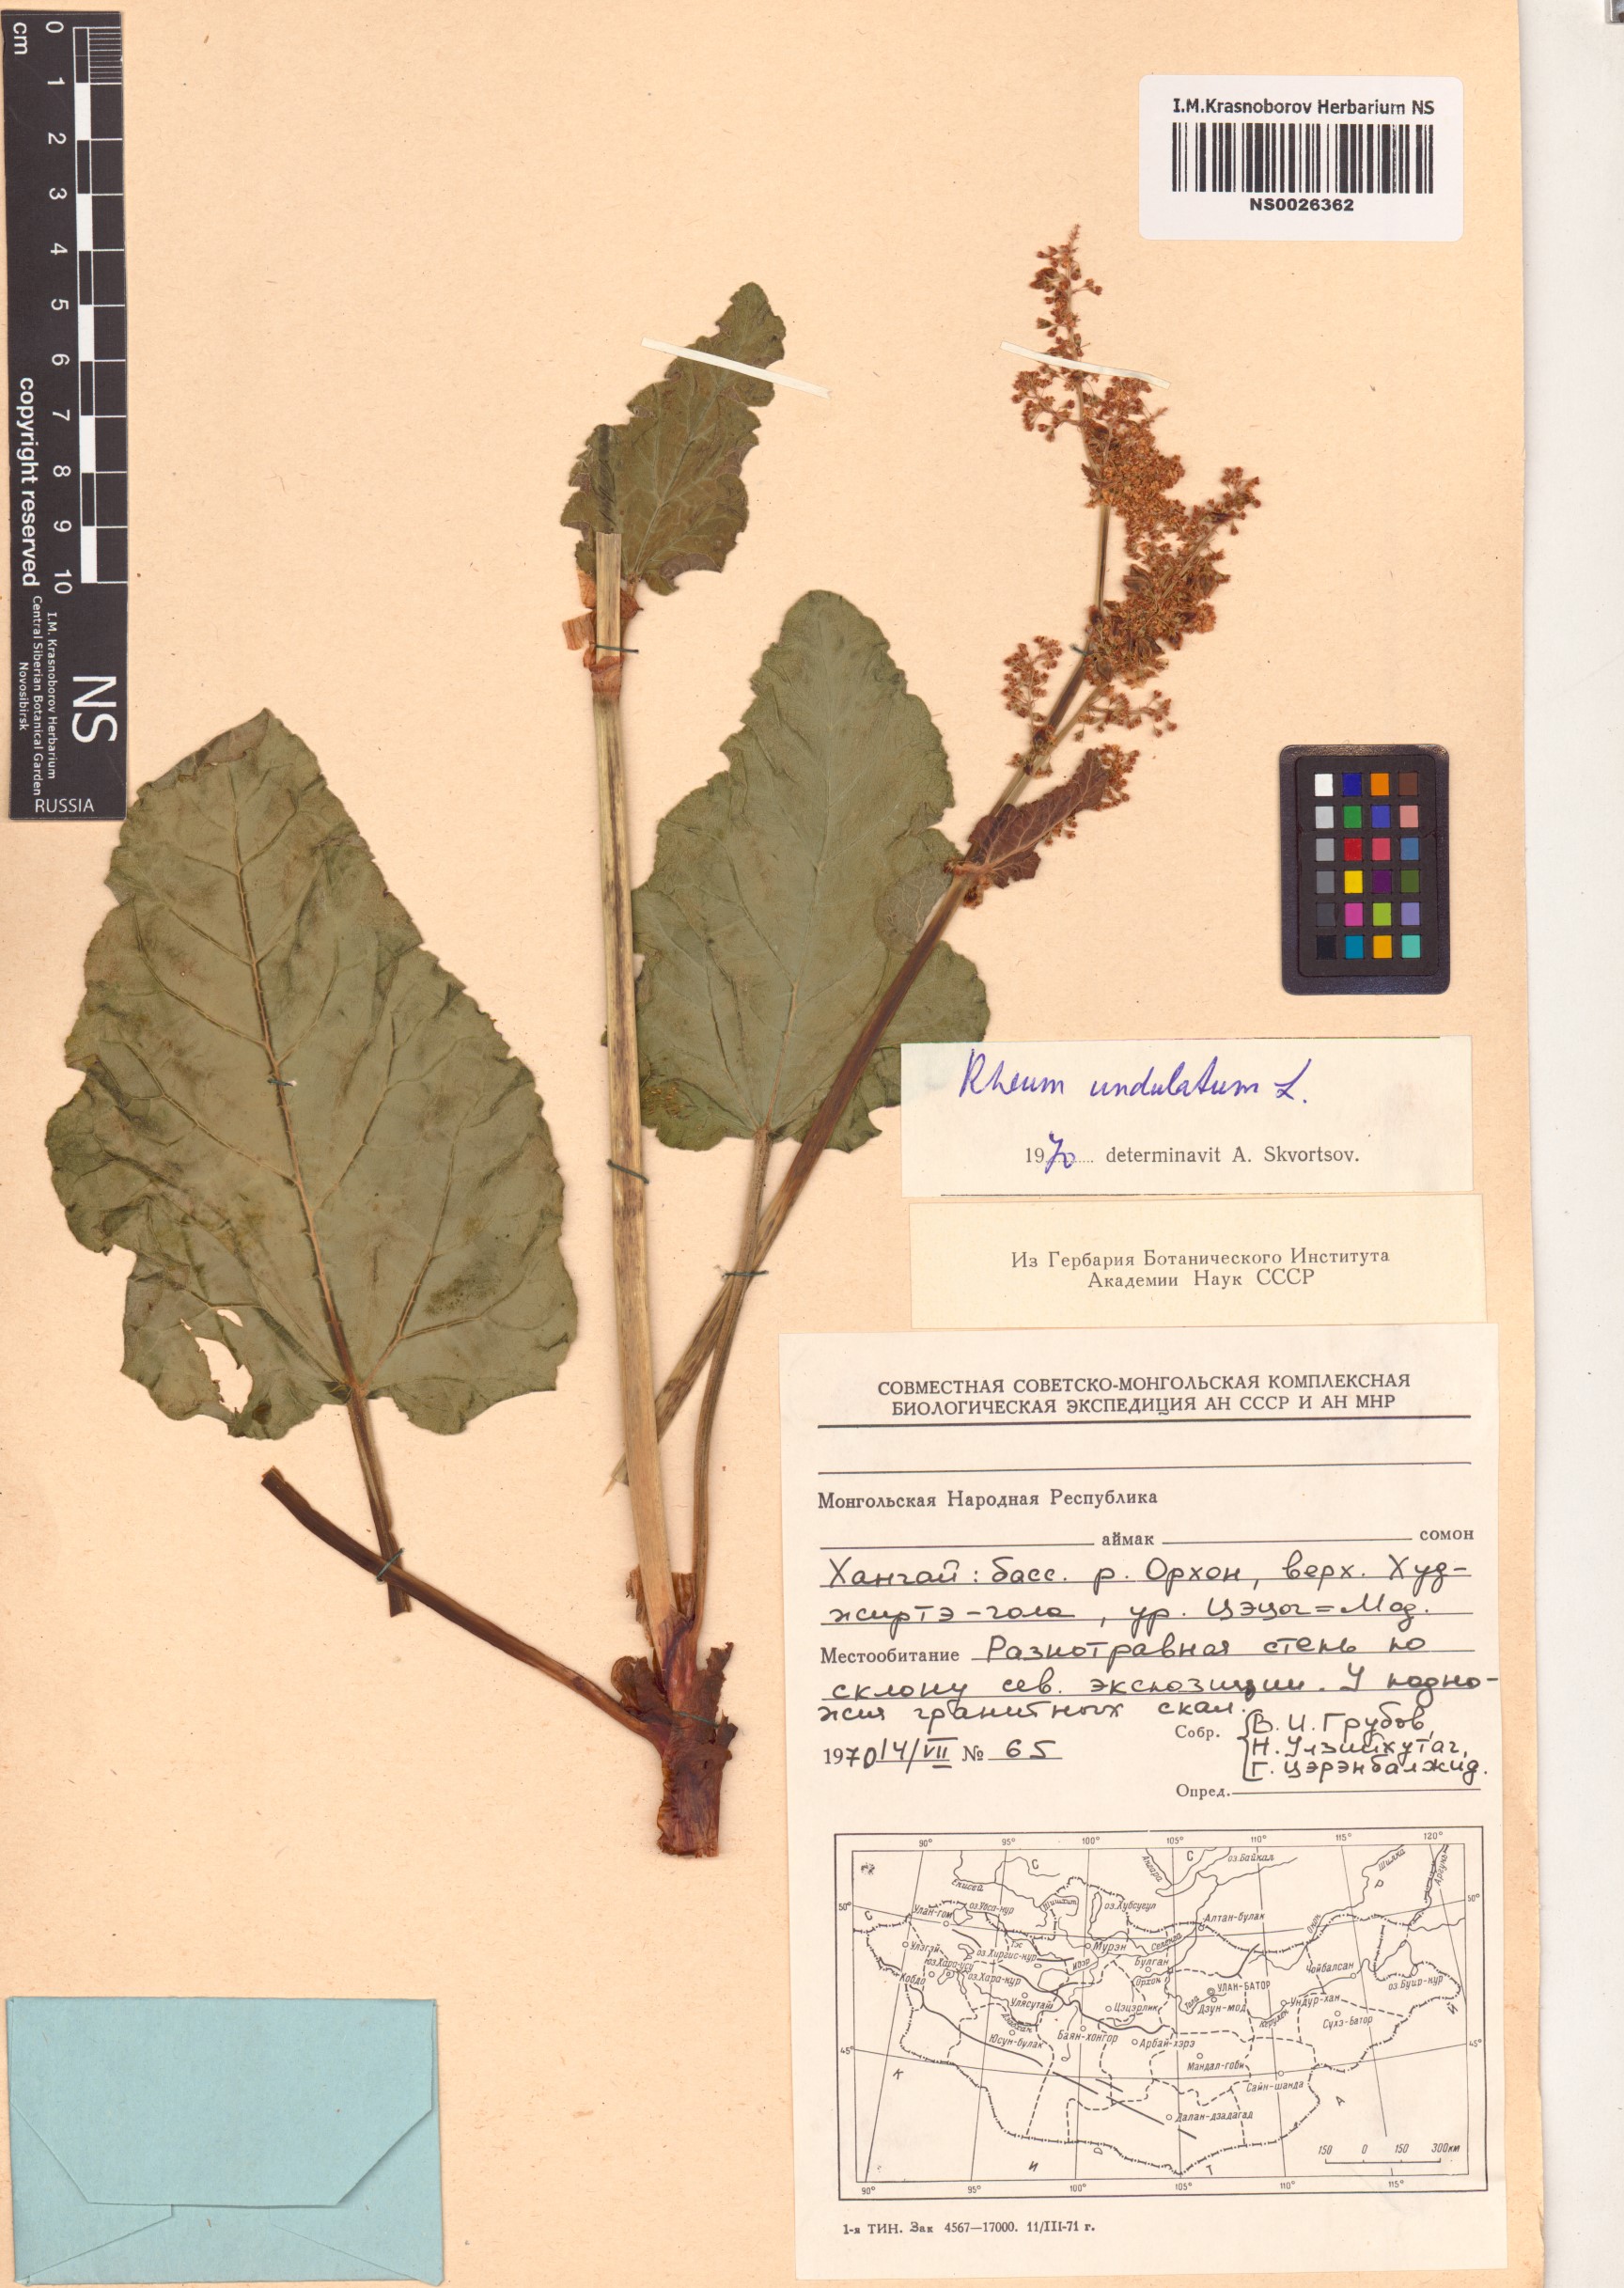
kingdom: Plantae
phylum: Tracheophyta
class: Magnoliopsida
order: Caryophyllales
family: Polygonaceae
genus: Rheum
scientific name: Rheum rhabarbarum
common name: Garden rhubarb
